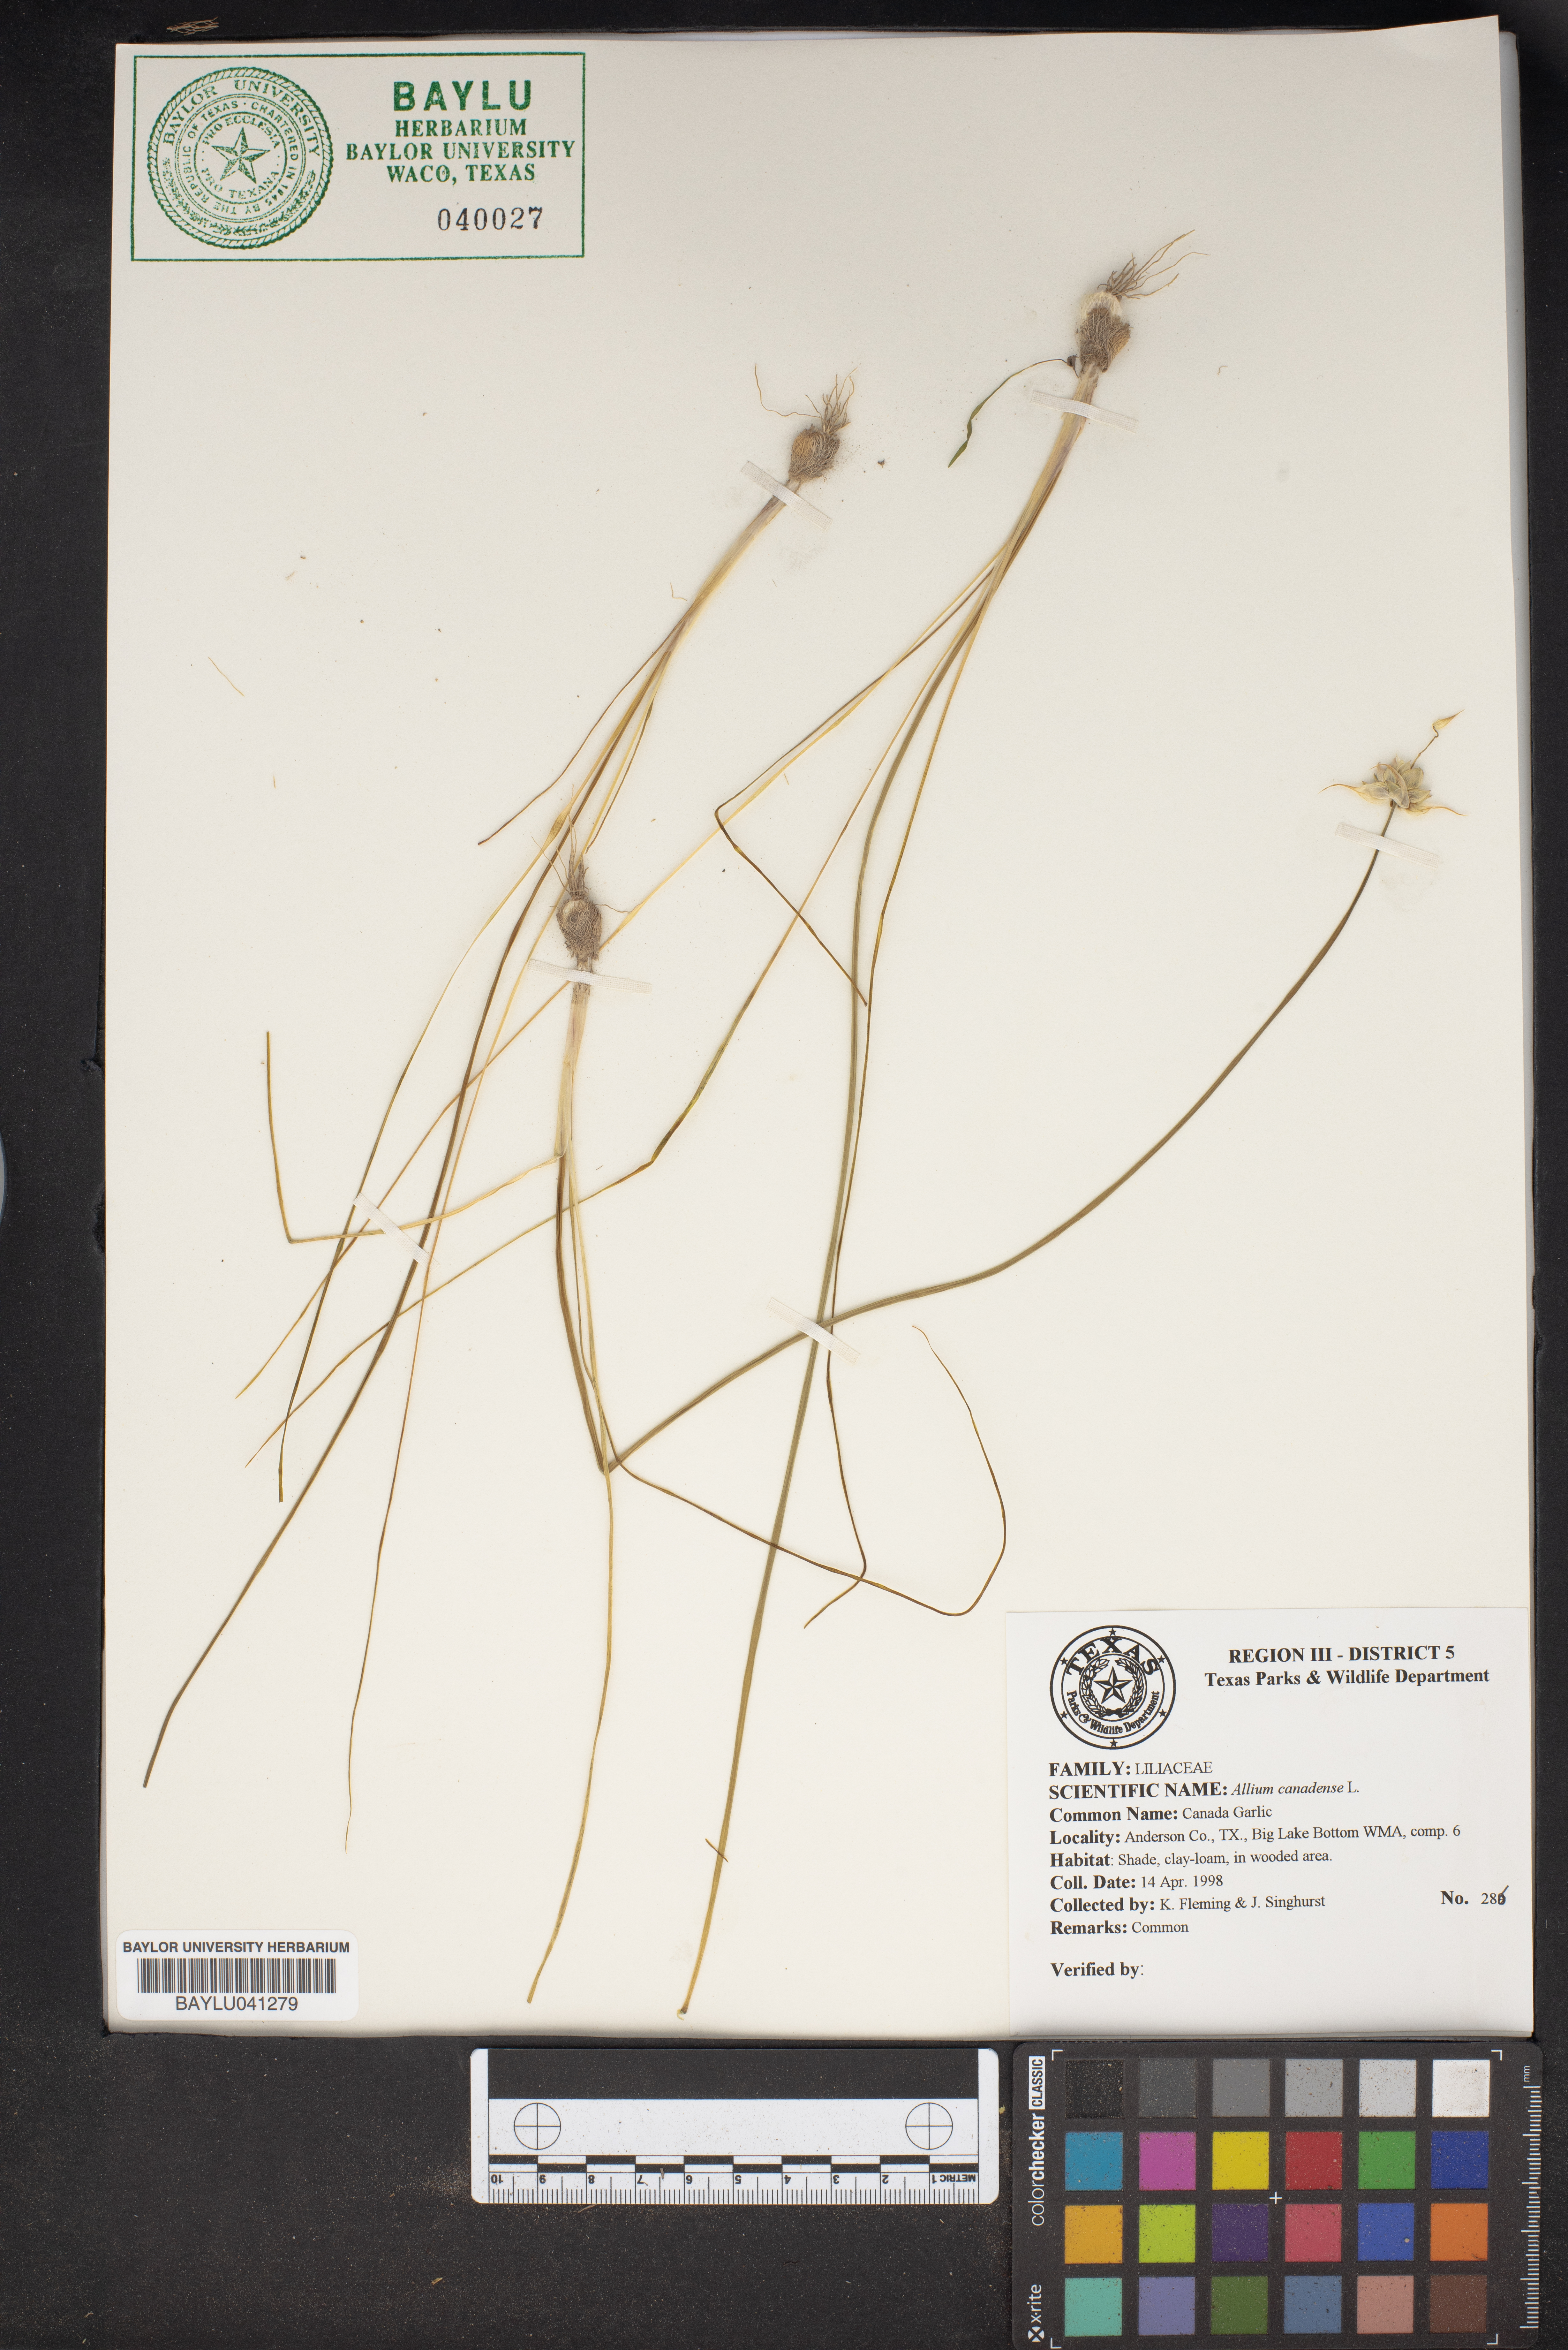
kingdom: Plantae
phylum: Tracheophyta
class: Liliopsida
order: Asparagales
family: Amaryllidaceae
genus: Allium
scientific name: Allium canadense
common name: Meadow garlic
